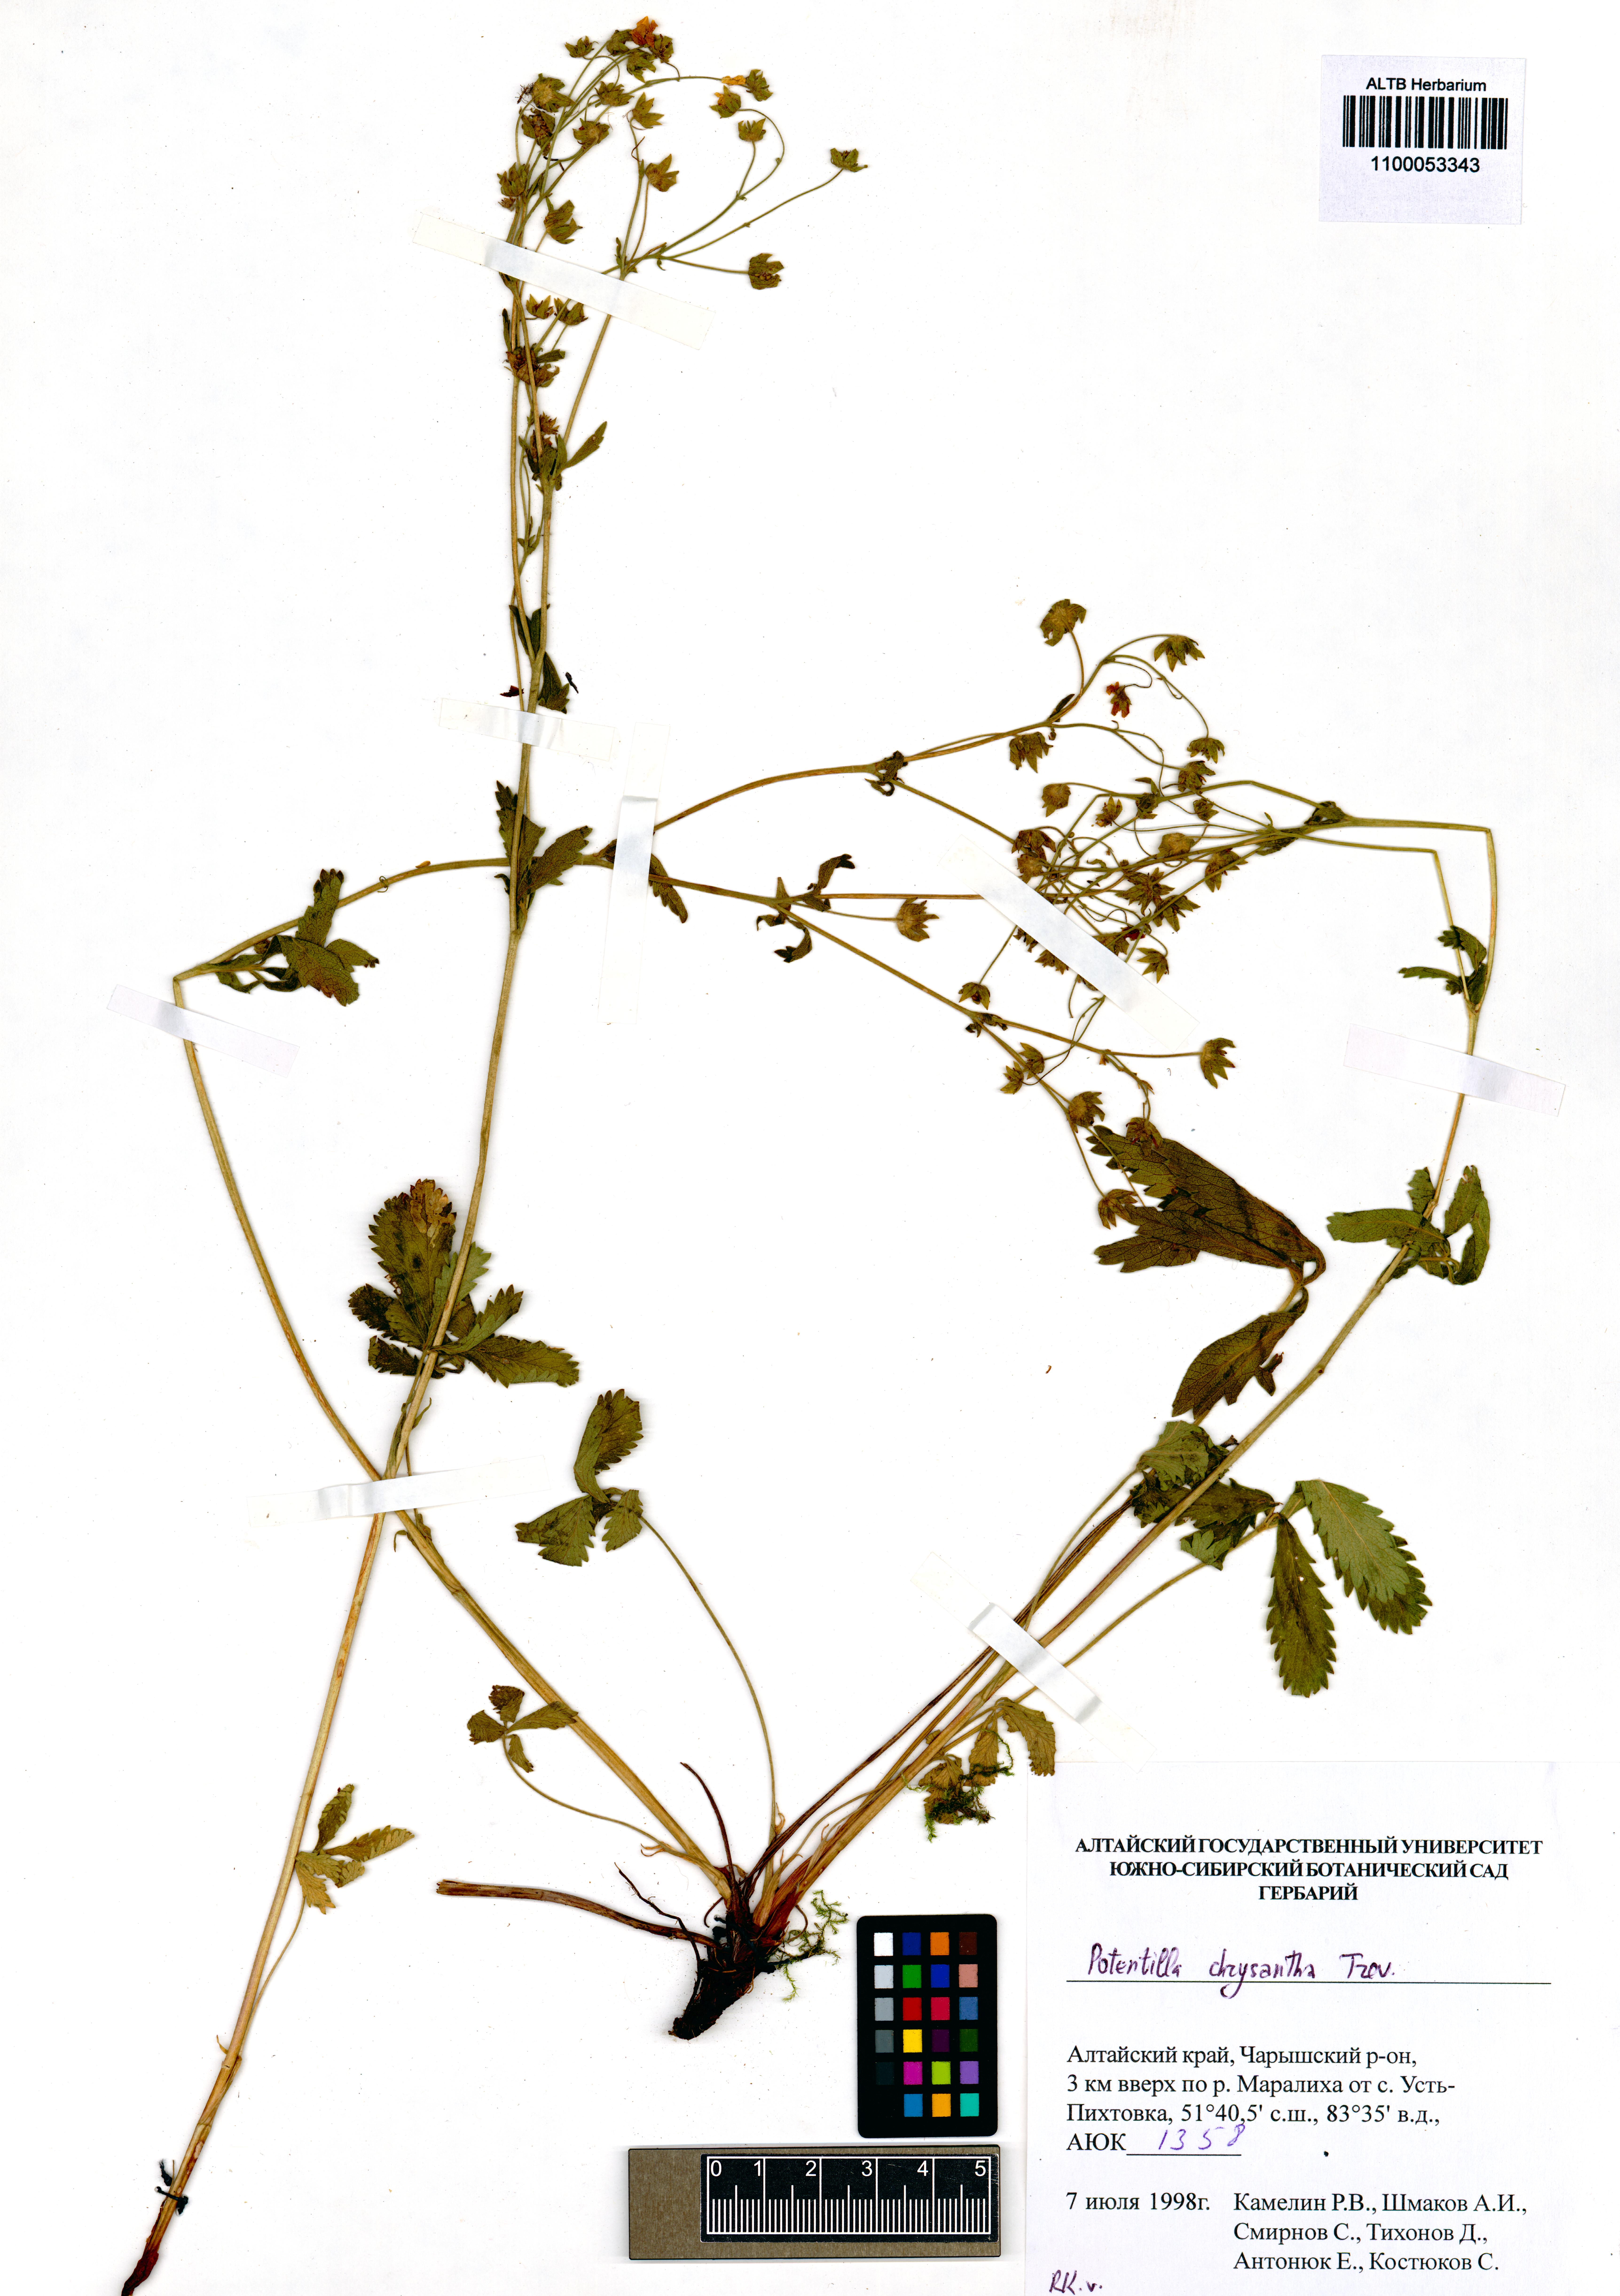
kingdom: Plantae
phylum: Tracheophyta
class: Magnoliopsida
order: Rosales
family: Rosaceae
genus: Potentilla
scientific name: Potentilla chrysantha
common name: Thuringian cinquefoil
